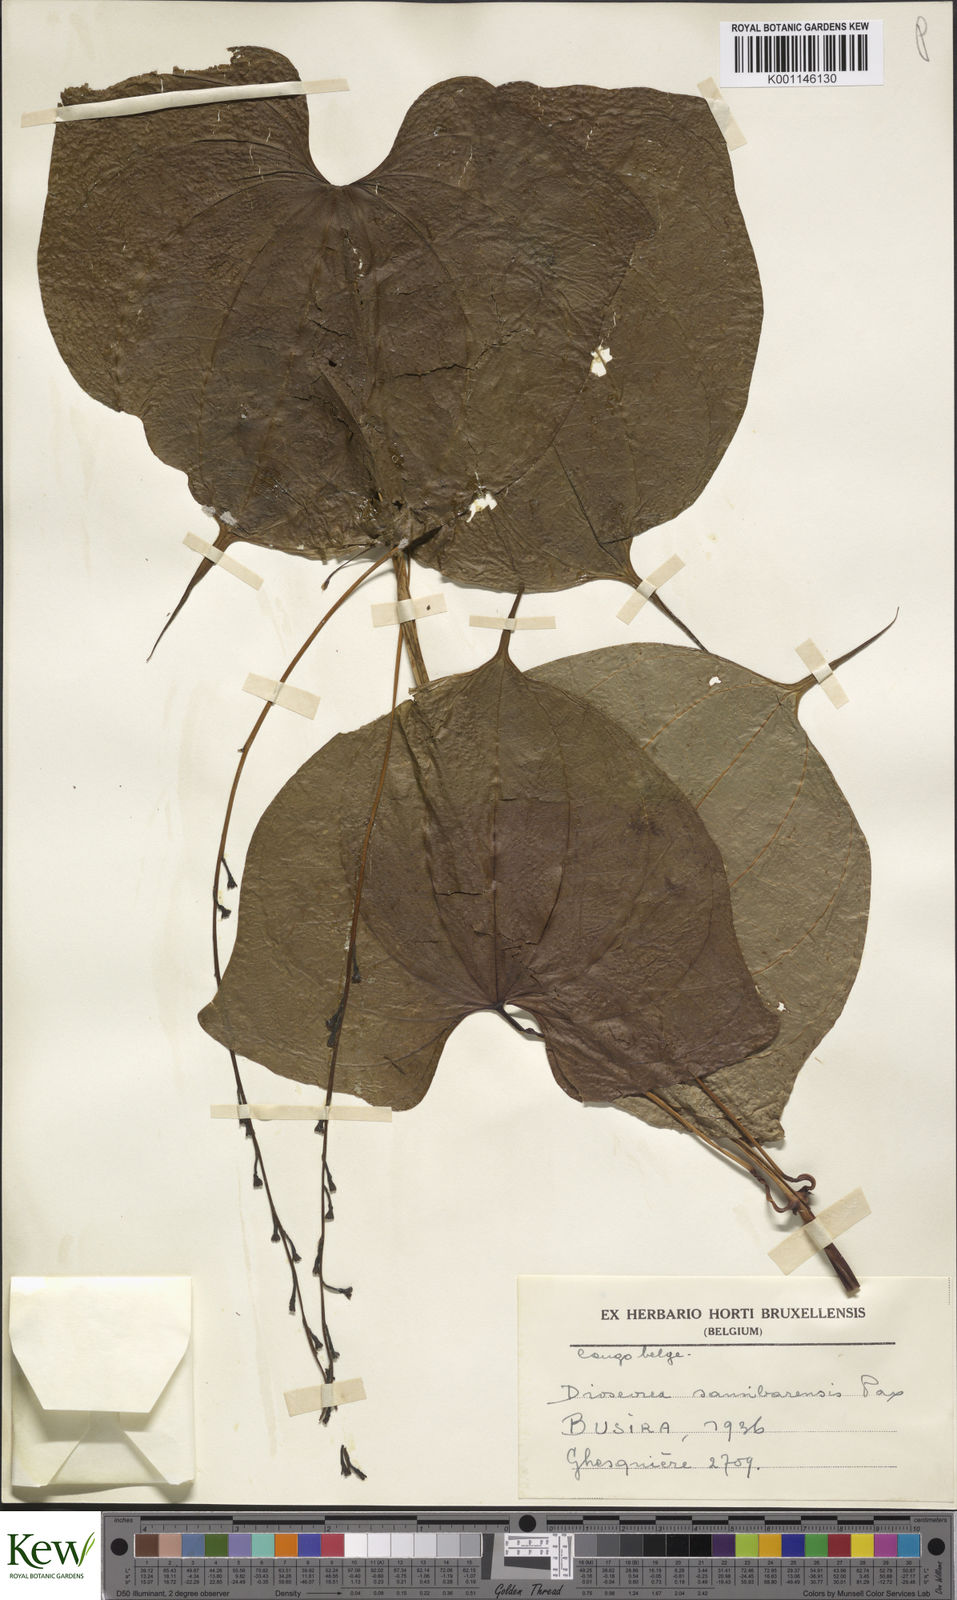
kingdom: Plantae
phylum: Tracheophyta
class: Liliopsida
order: Dioscoreales
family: Dioscoreaceae
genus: Dioscorea
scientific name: Dioscorea sansibarensis
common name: Zanzibar yam
